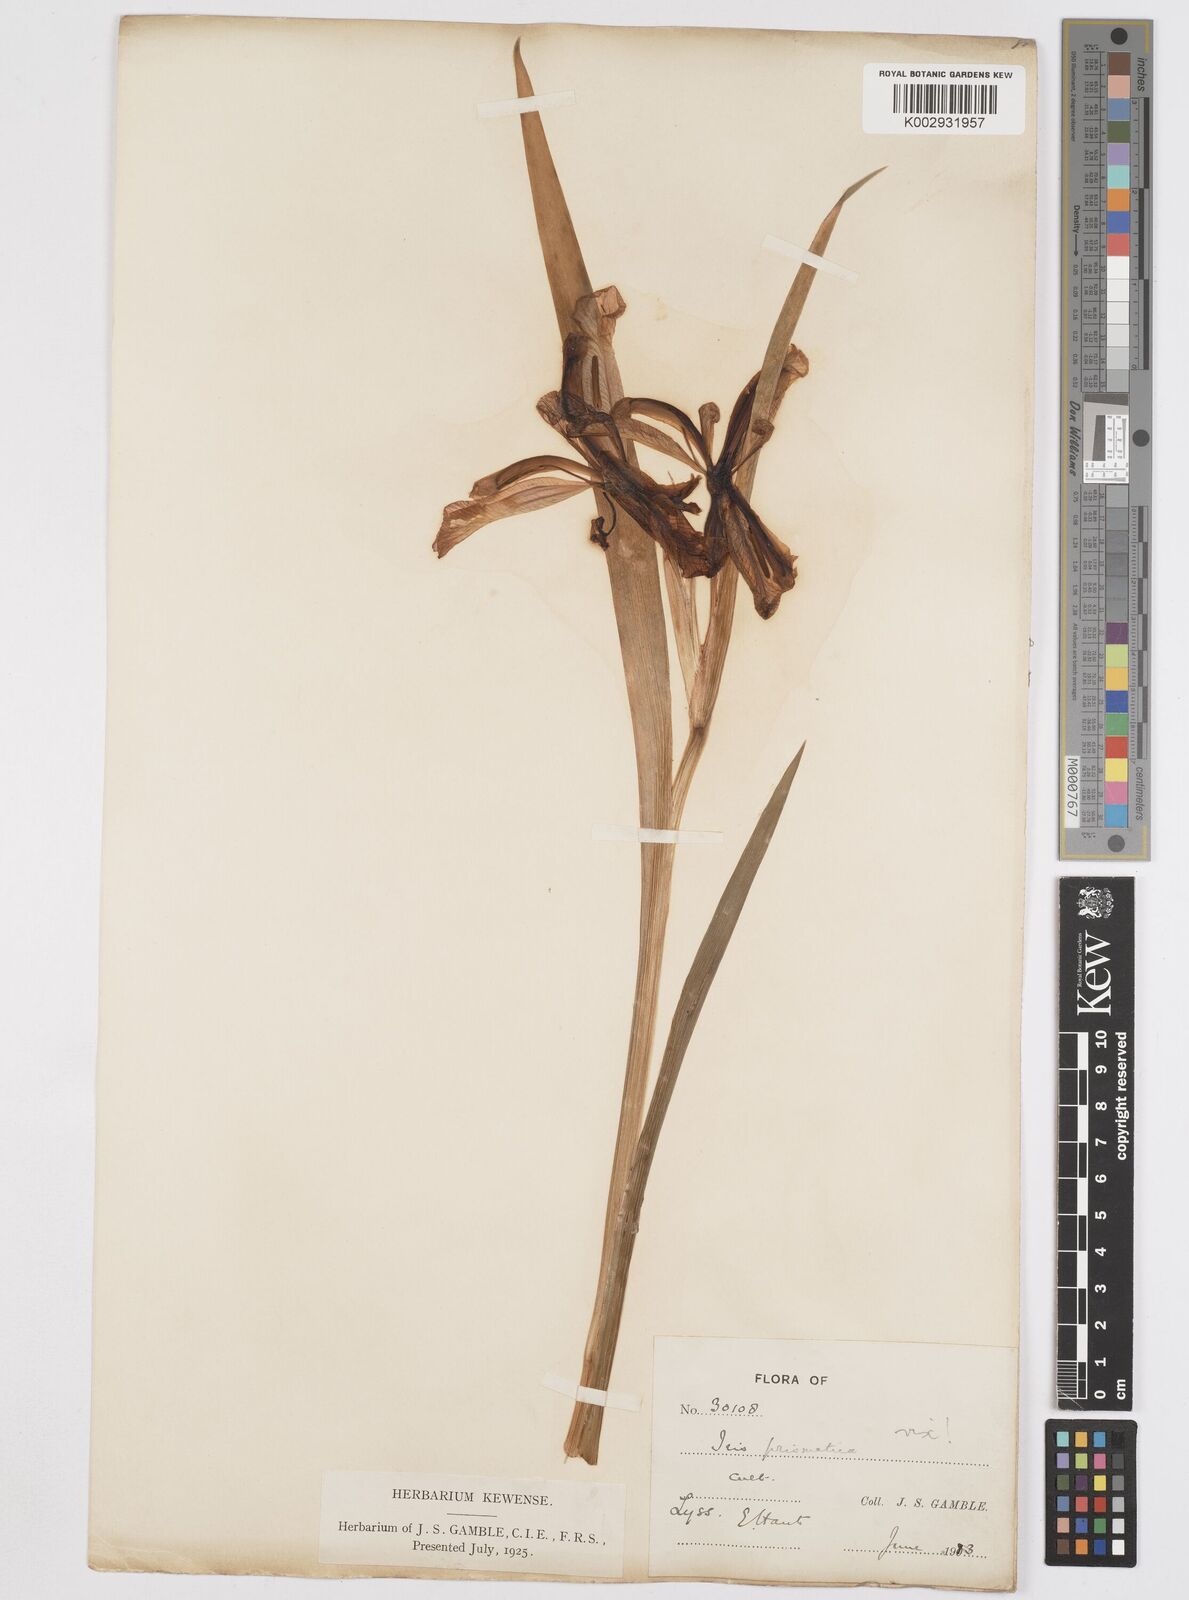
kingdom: Plantae
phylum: Tracheophyta
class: Liliopsida
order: Asparagales
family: Iridaceae
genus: Iris
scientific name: Iris brevicaulis
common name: Zigzag iris
